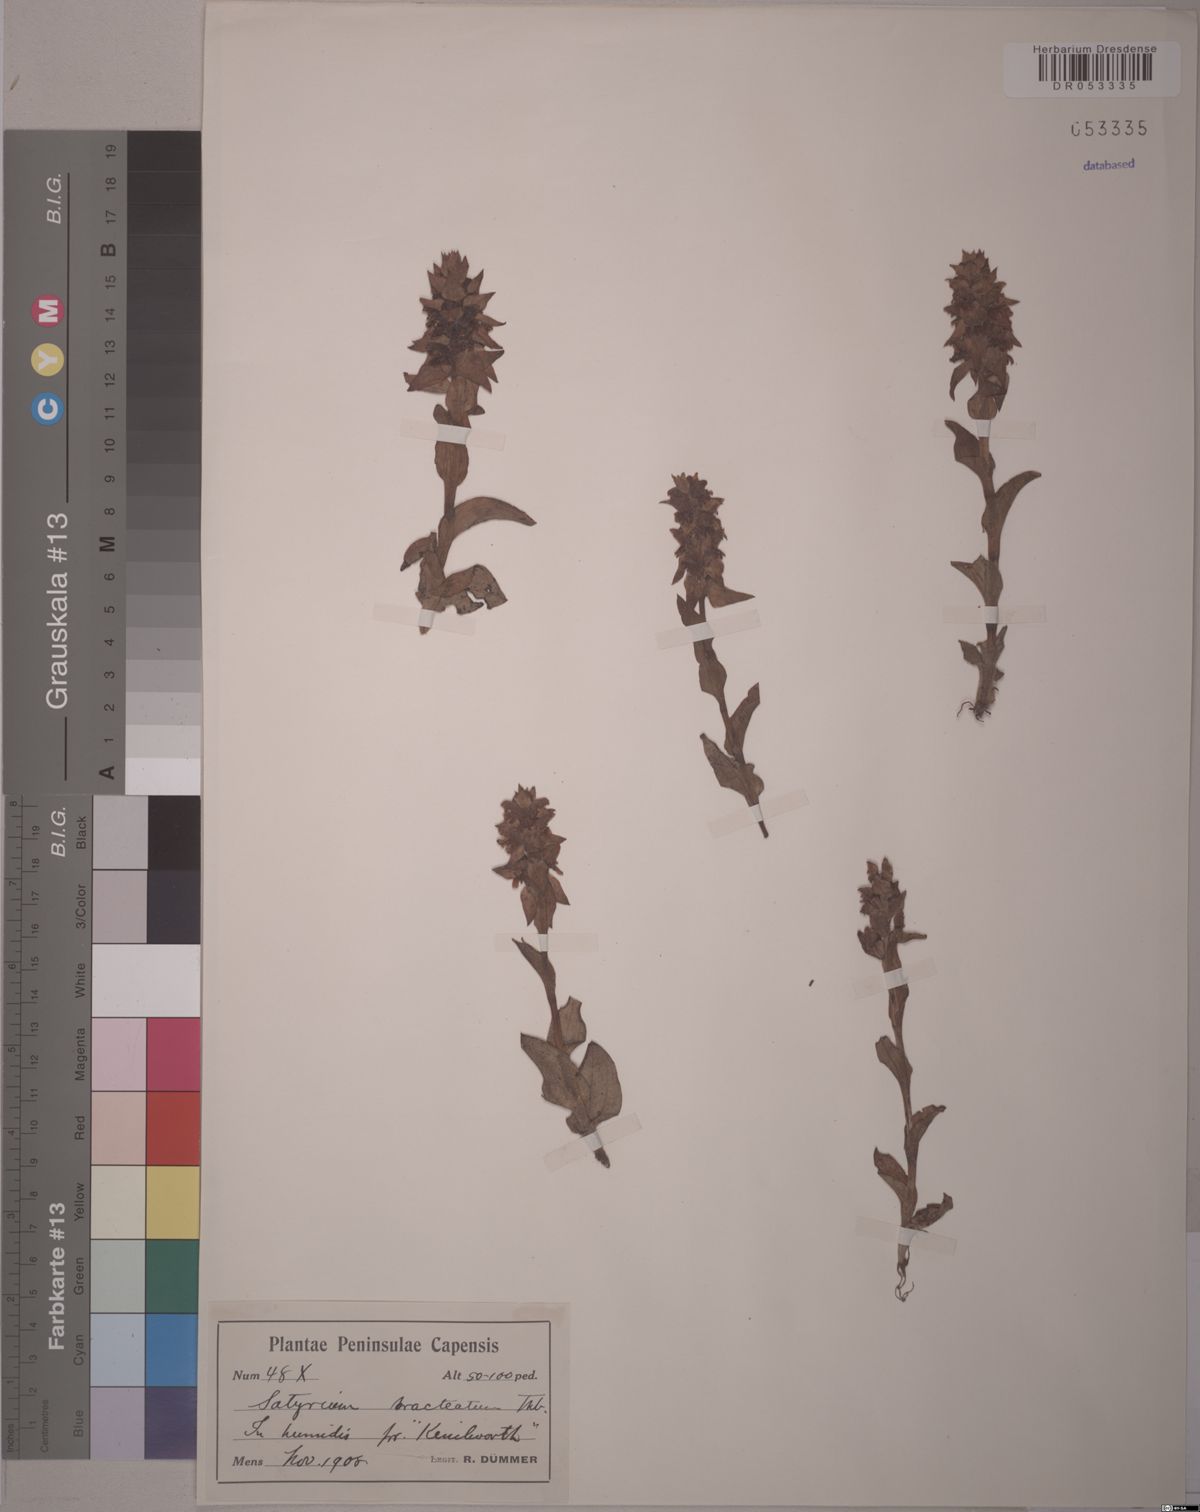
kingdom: Plantae
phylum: Tracheophyta
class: Liliopsida
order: Asparagales
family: Orchidaceae
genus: Satyrium
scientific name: Satyrium bracteatum
